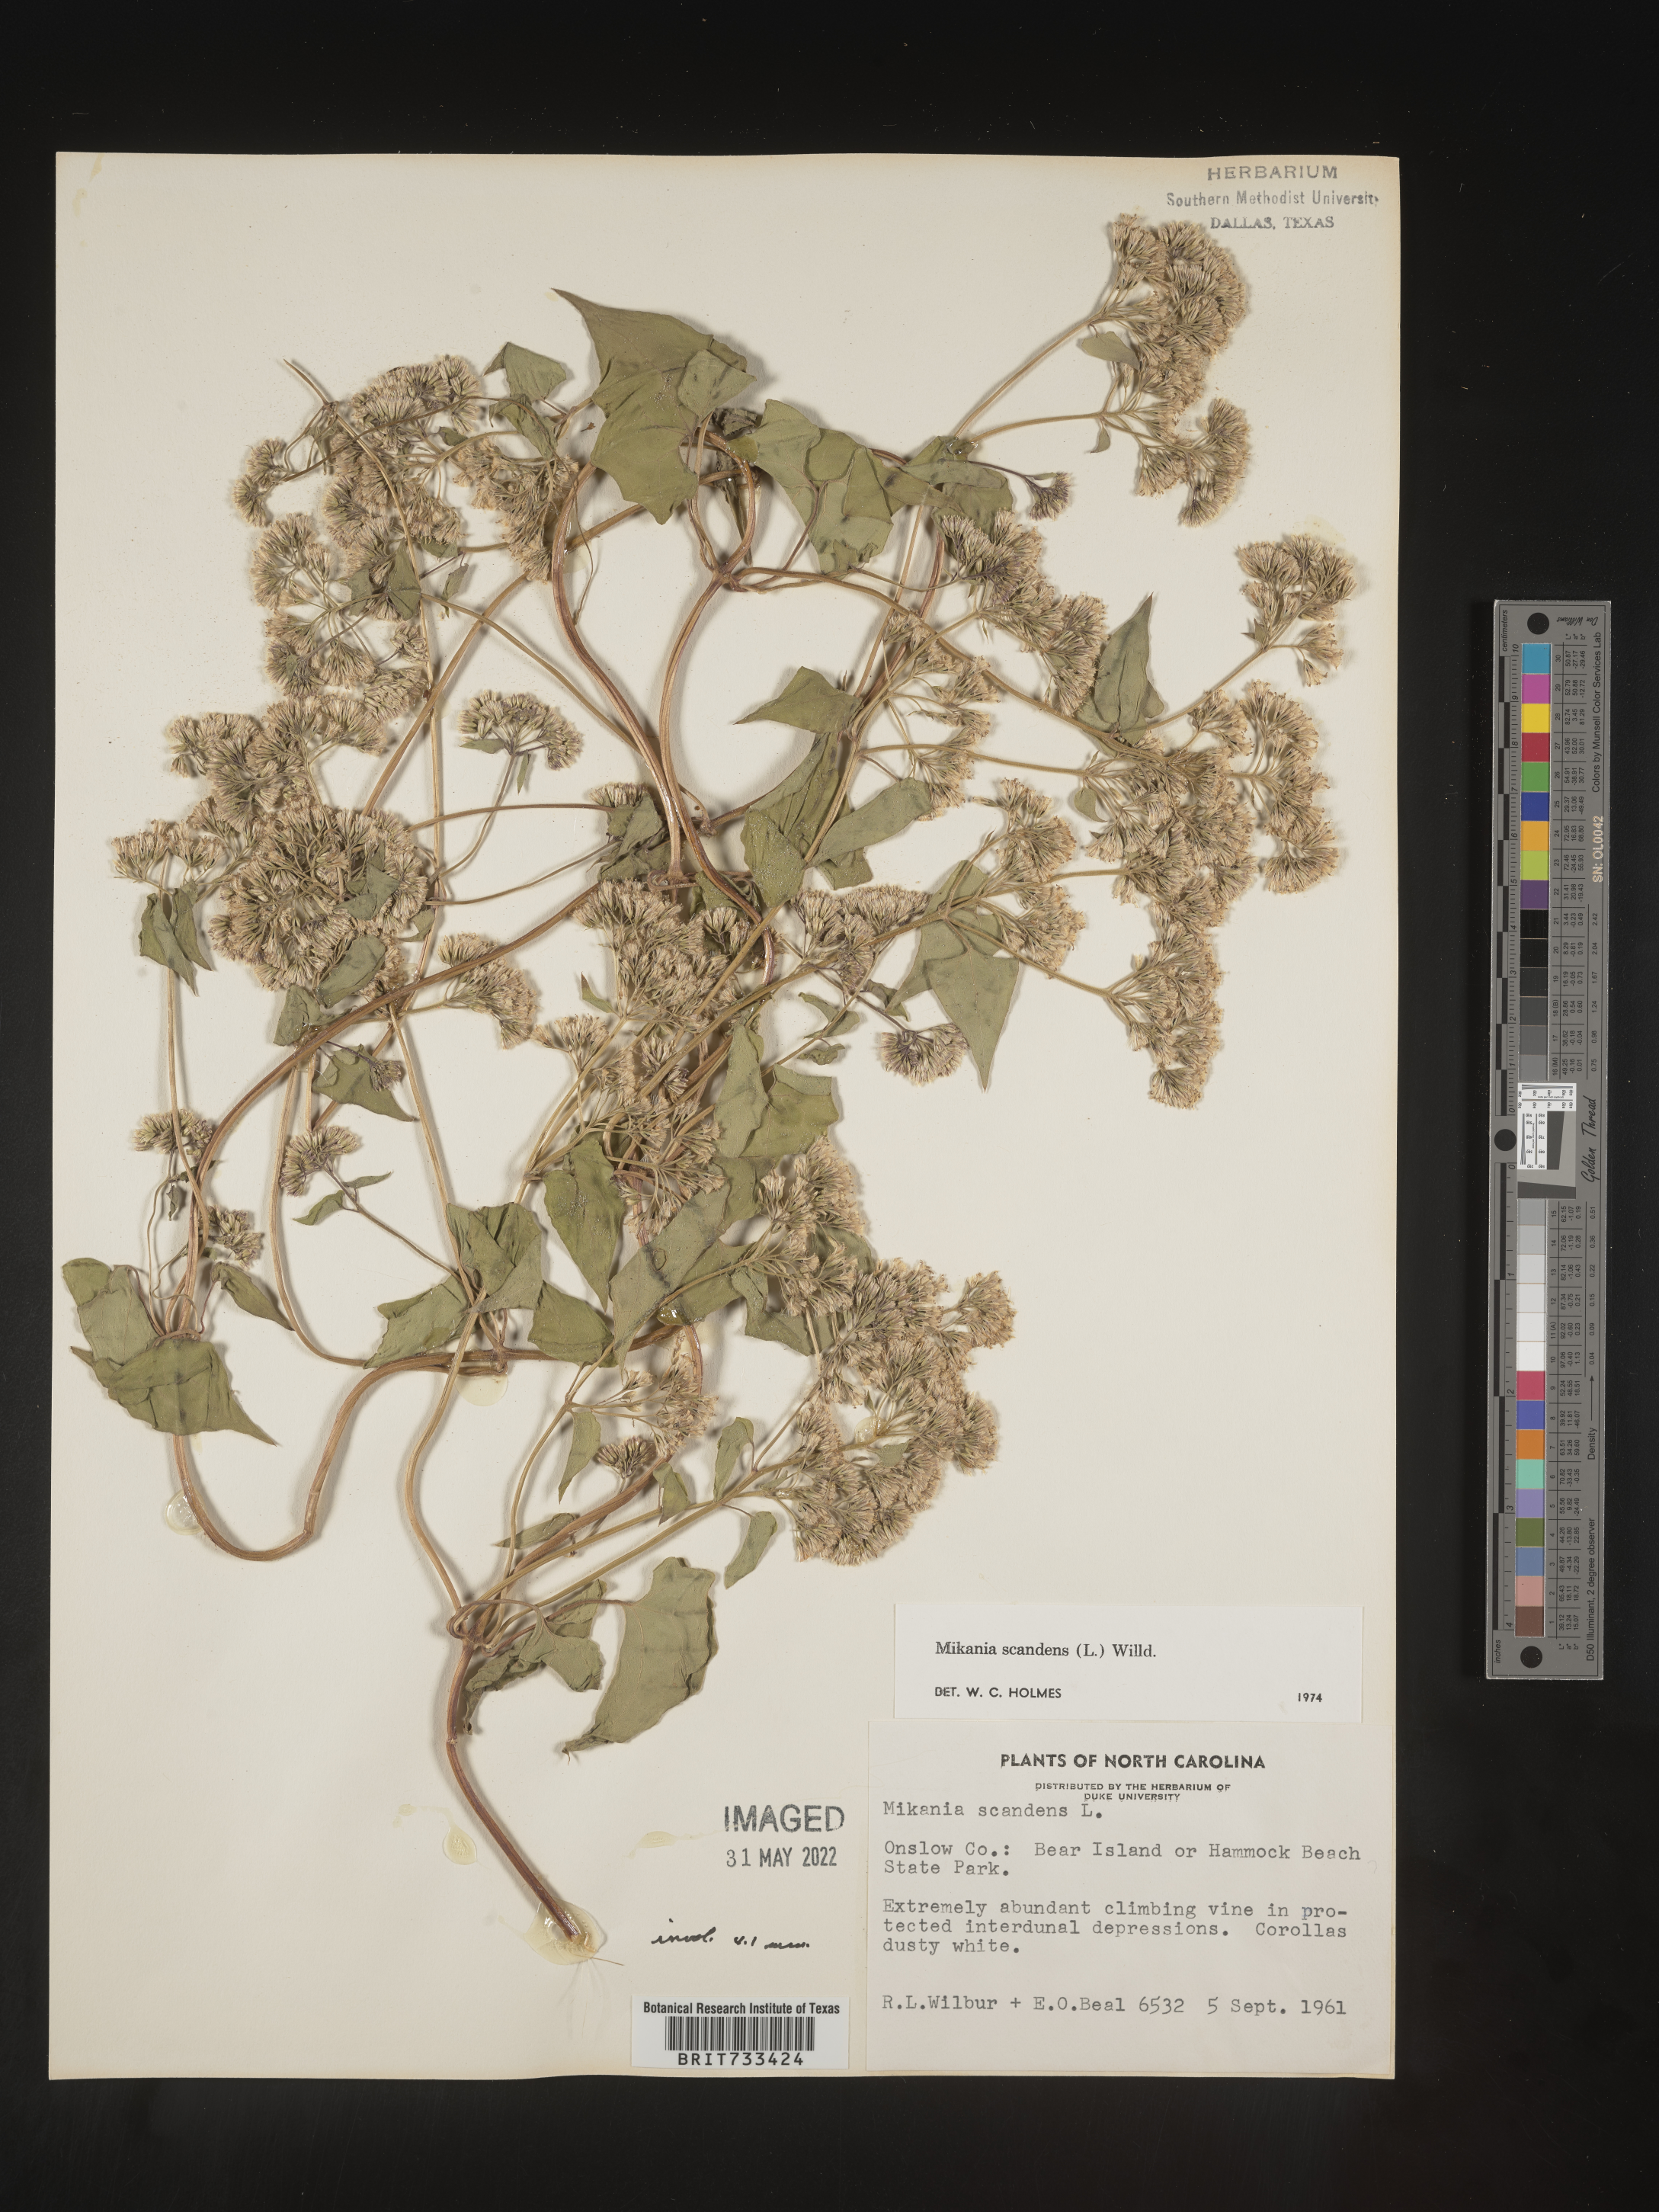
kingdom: Plantae
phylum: Tracheophyta
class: Magnoliopsida
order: Asterales
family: Asteraceae
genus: Mikania
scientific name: Mikania scandens
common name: Climbing hempvine
